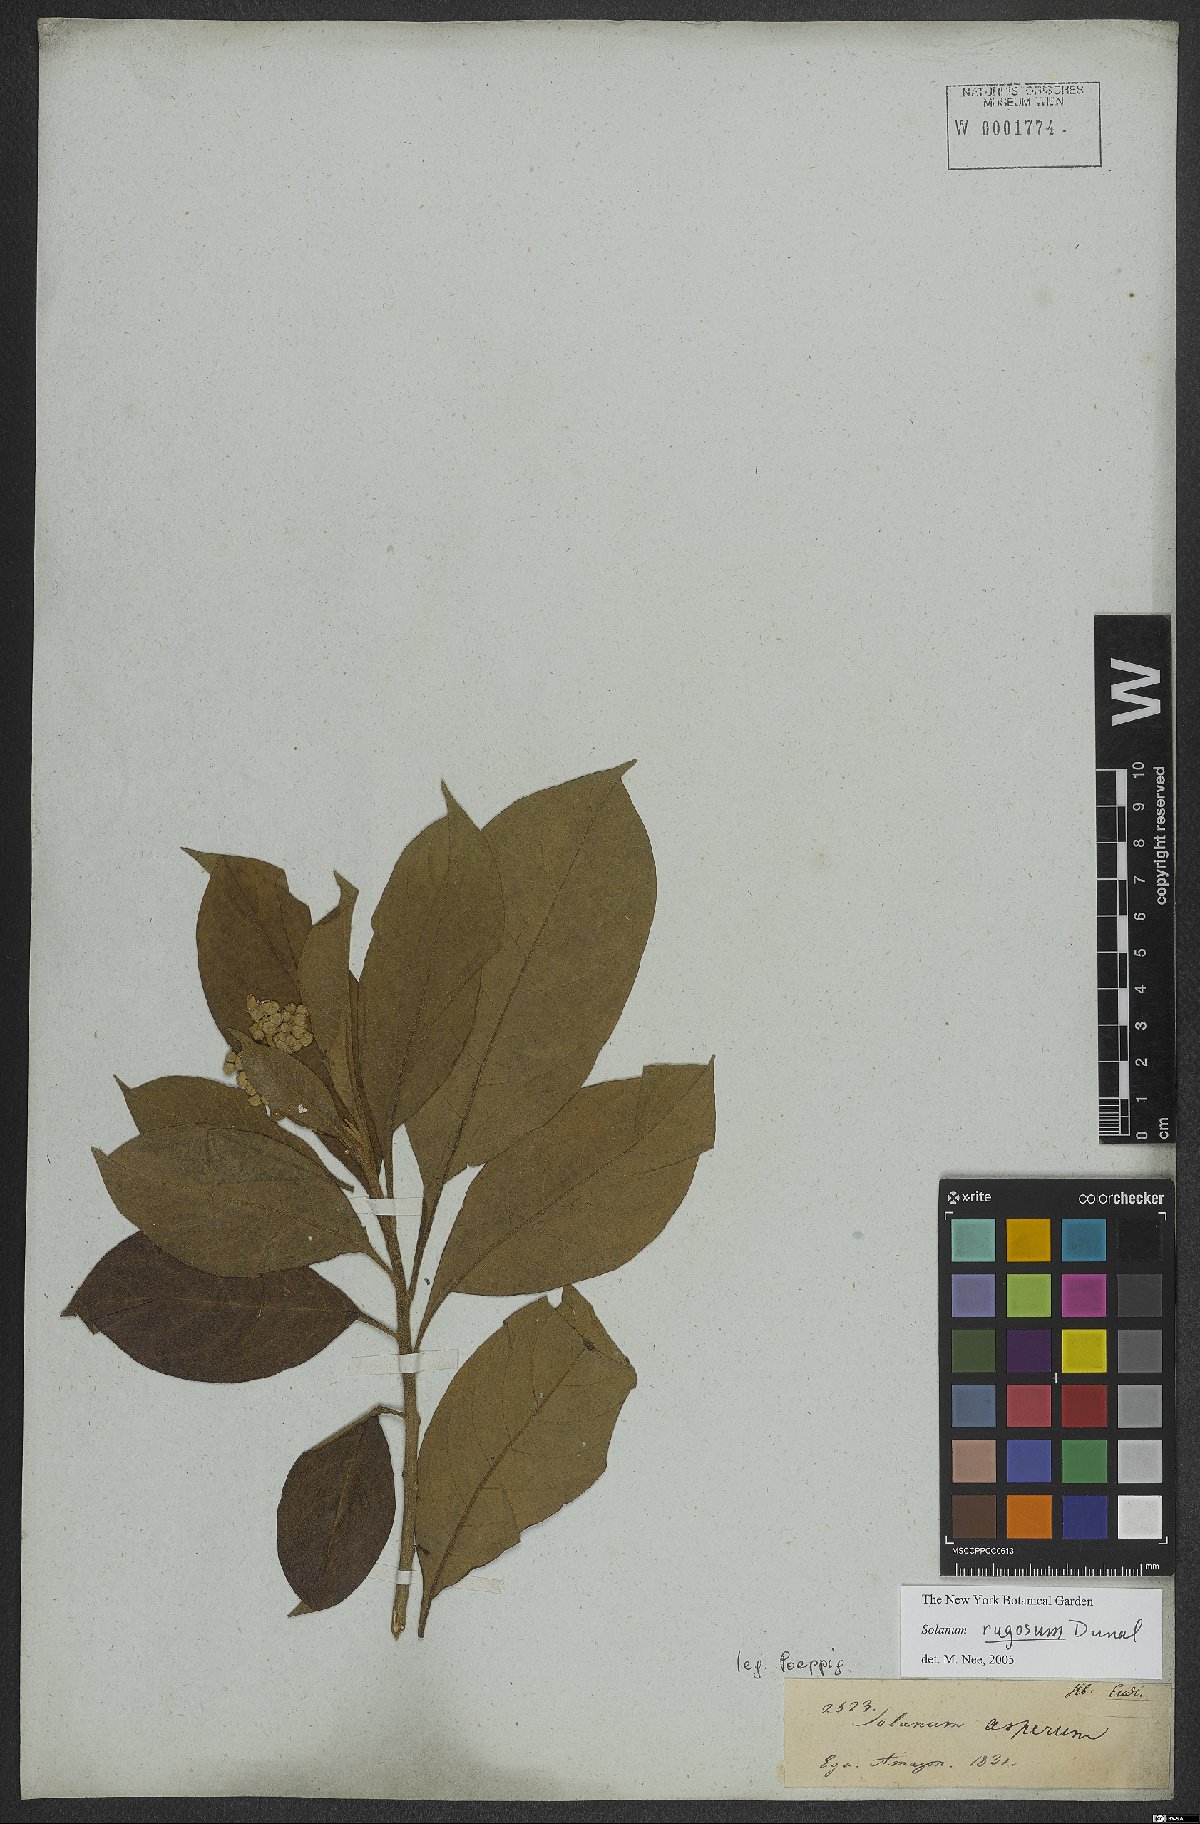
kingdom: Plantae
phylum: Tracheophyta
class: Magnoliopsida
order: Solanales
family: Solanaceae
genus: Solanum
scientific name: Solanum rugosum
